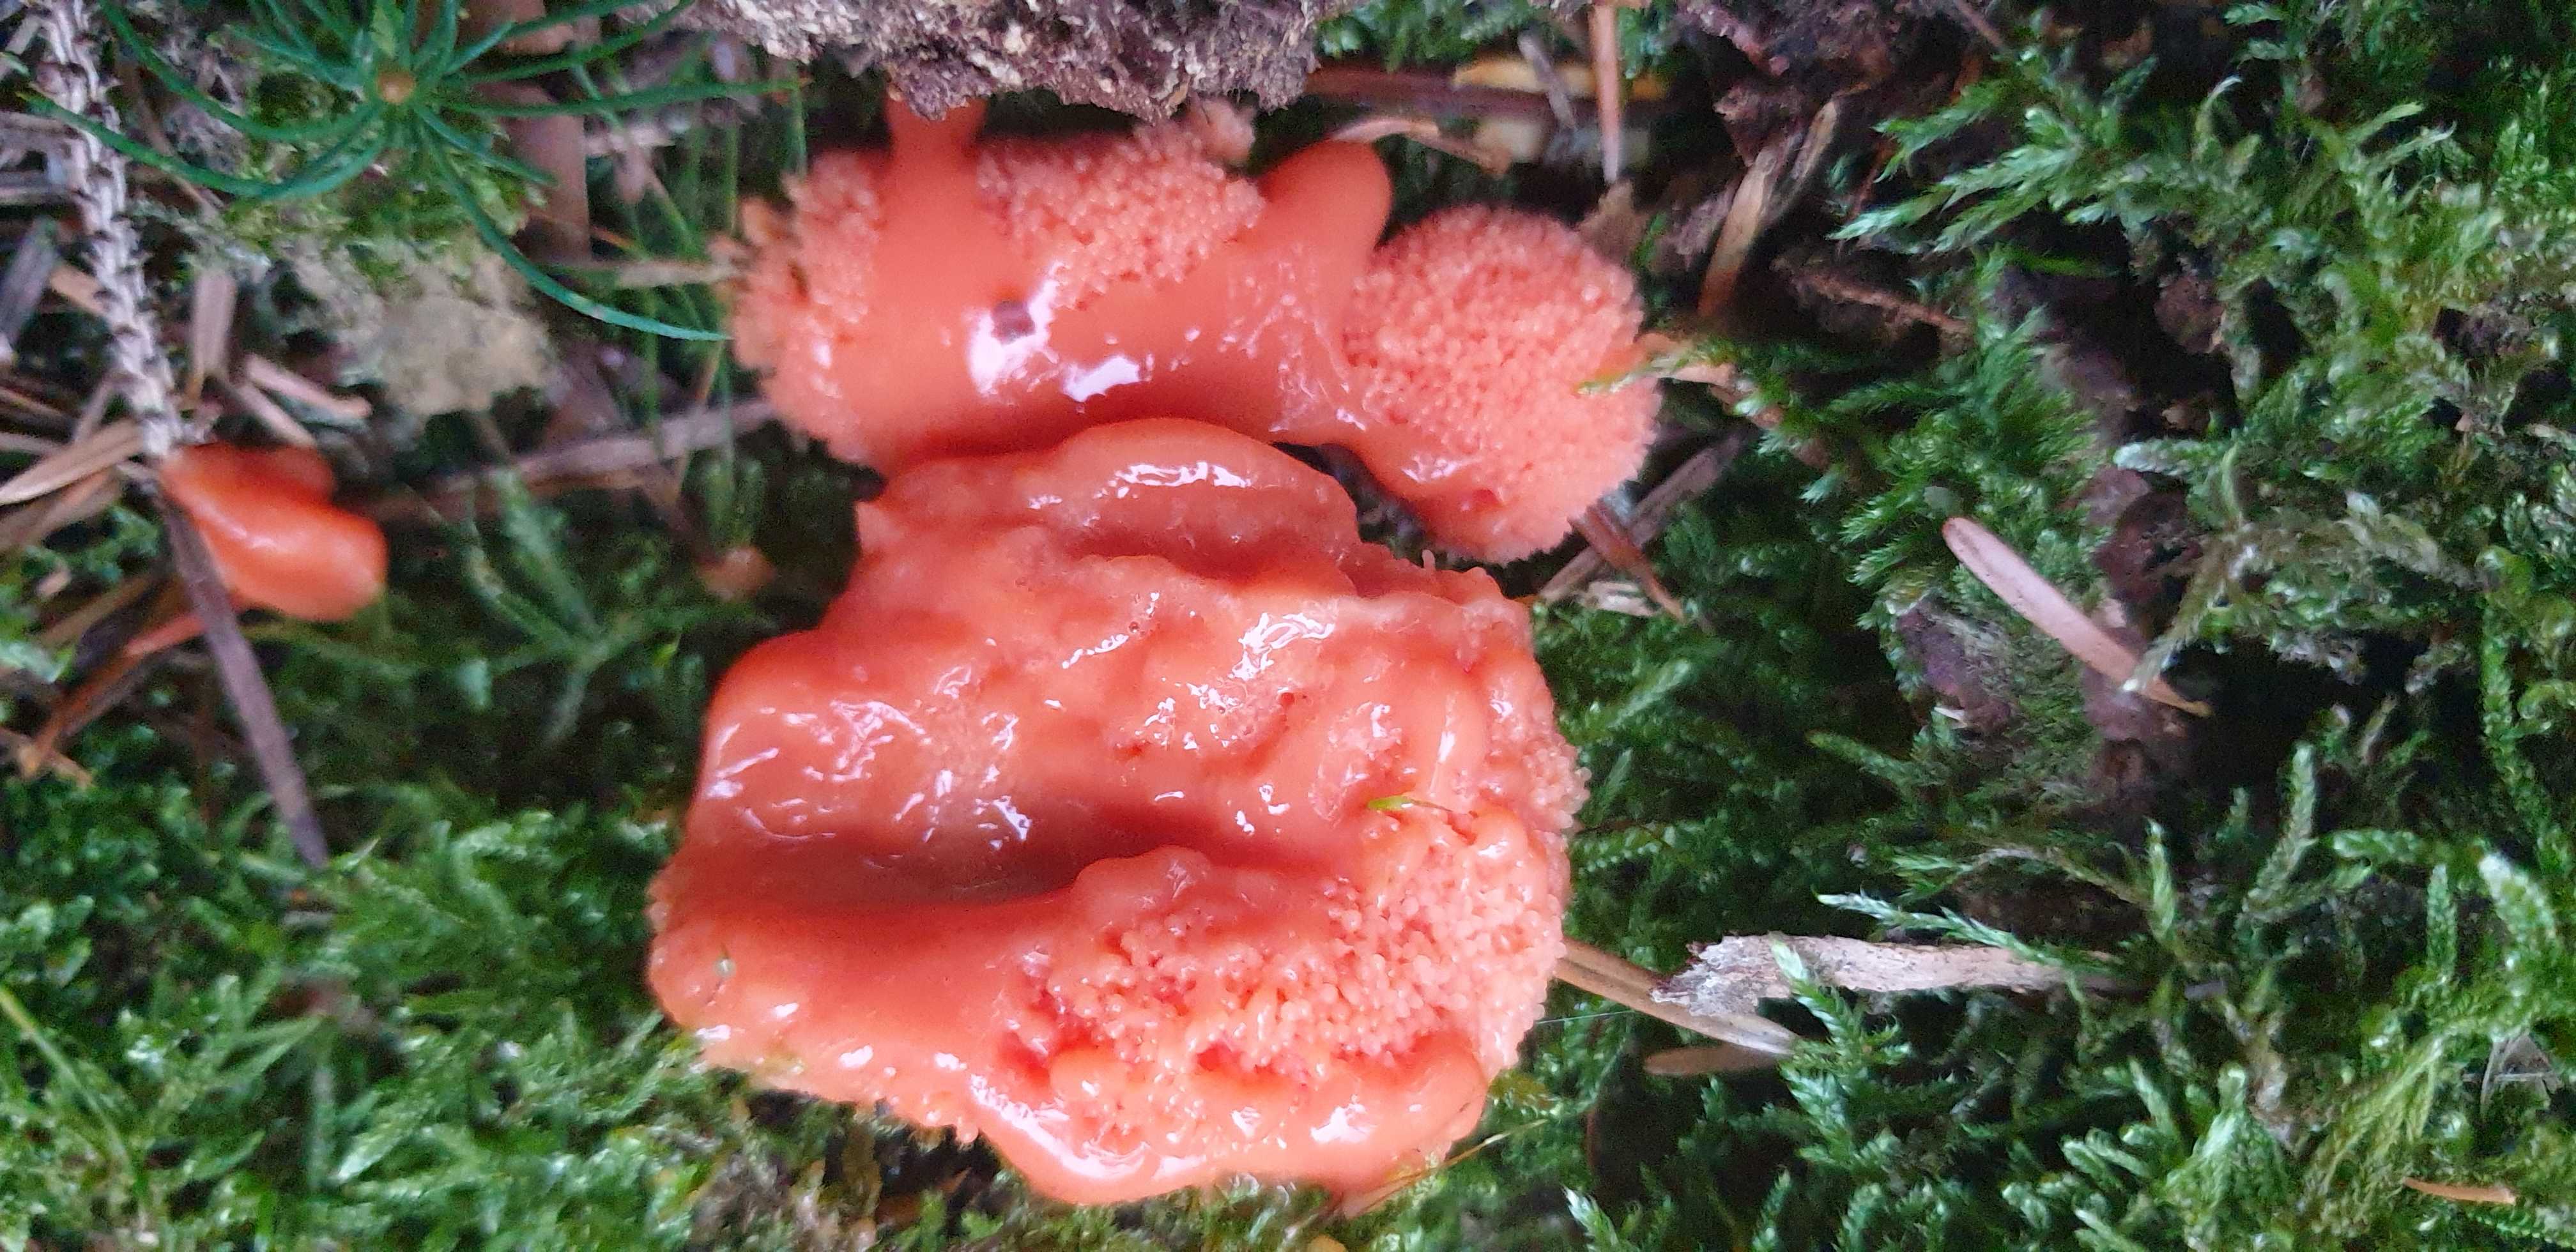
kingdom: Protozoa
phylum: Mycetozoa
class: Myxomycetes
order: Cribrariales
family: Tubiferaceae
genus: Tubifera
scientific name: Tubifera ferruginosa
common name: kanel-støvrør
